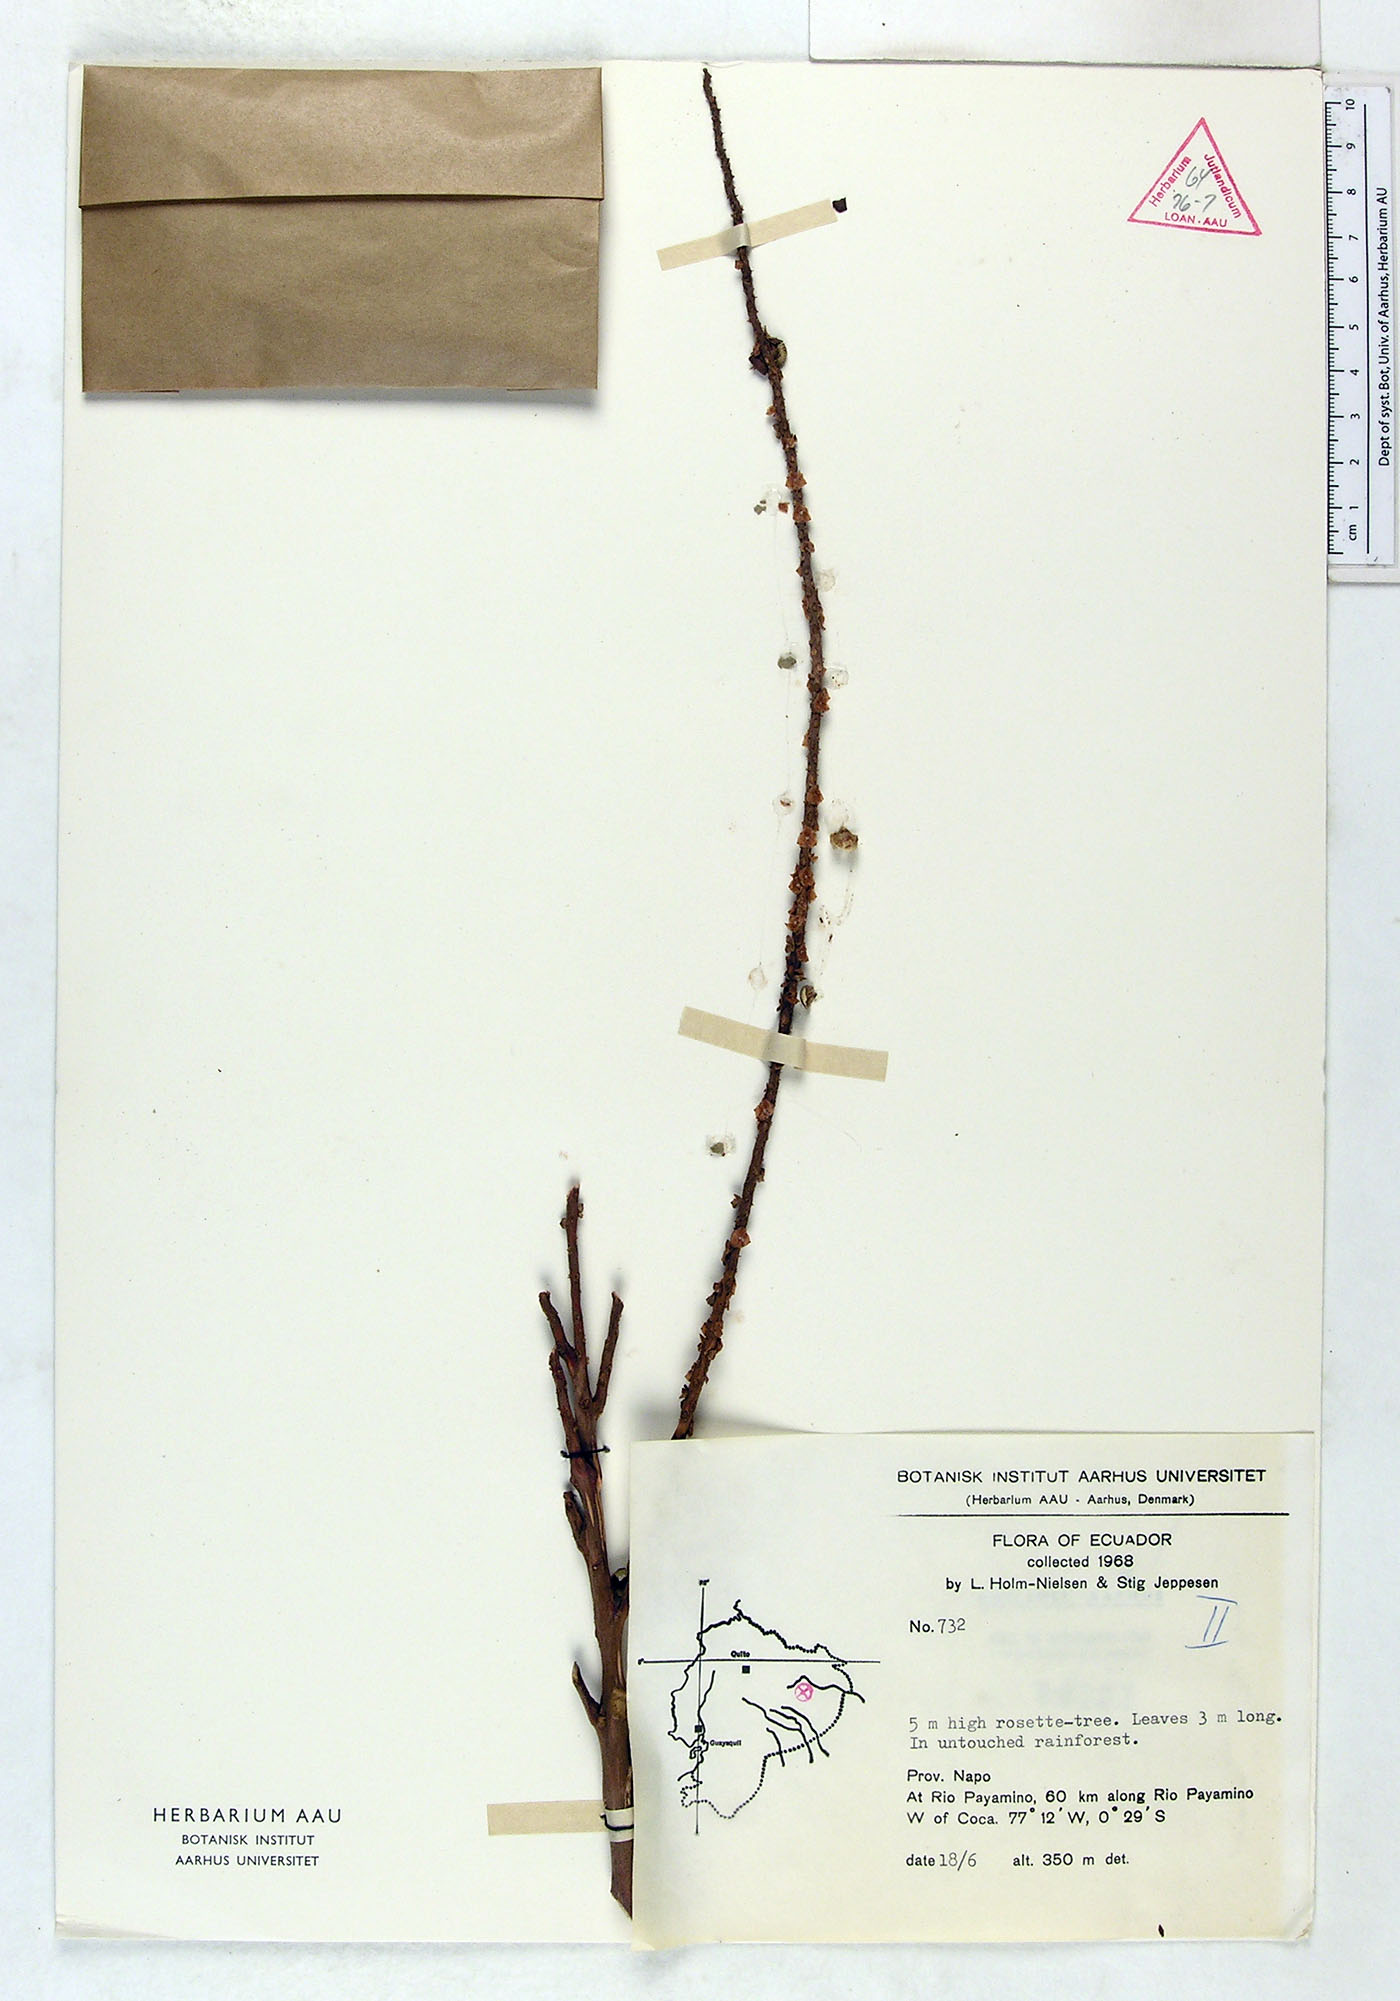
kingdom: Plantae
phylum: Tracheophyta
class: Liliopsida
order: Arecales
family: Arecaceae
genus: Prestoea
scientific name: Prestoea schultzeana
